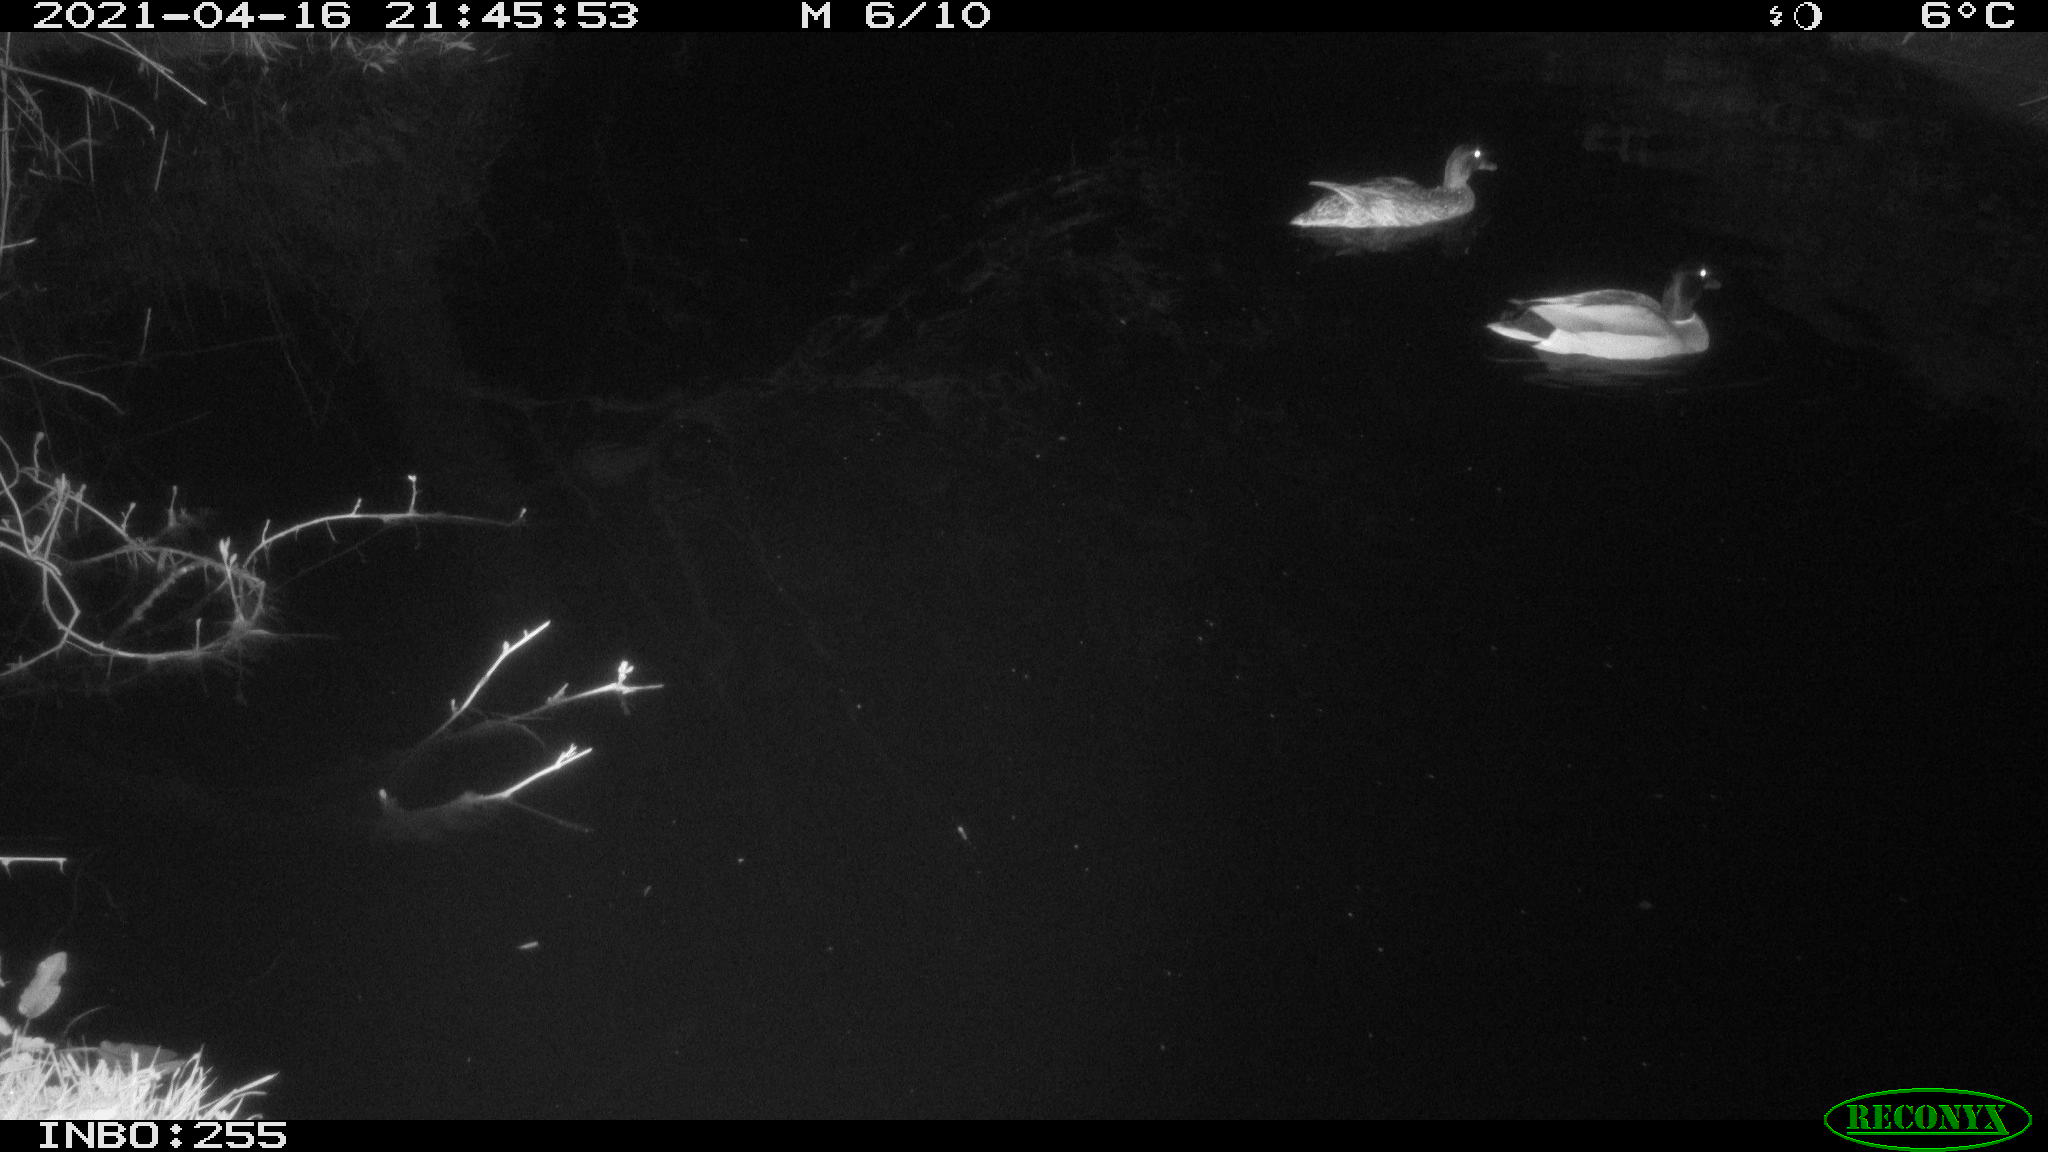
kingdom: Animalia
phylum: Chordata
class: Aves
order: Anseriformes
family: Anatidae
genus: Anas
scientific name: Anas platyrhynchos
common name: Mallard
